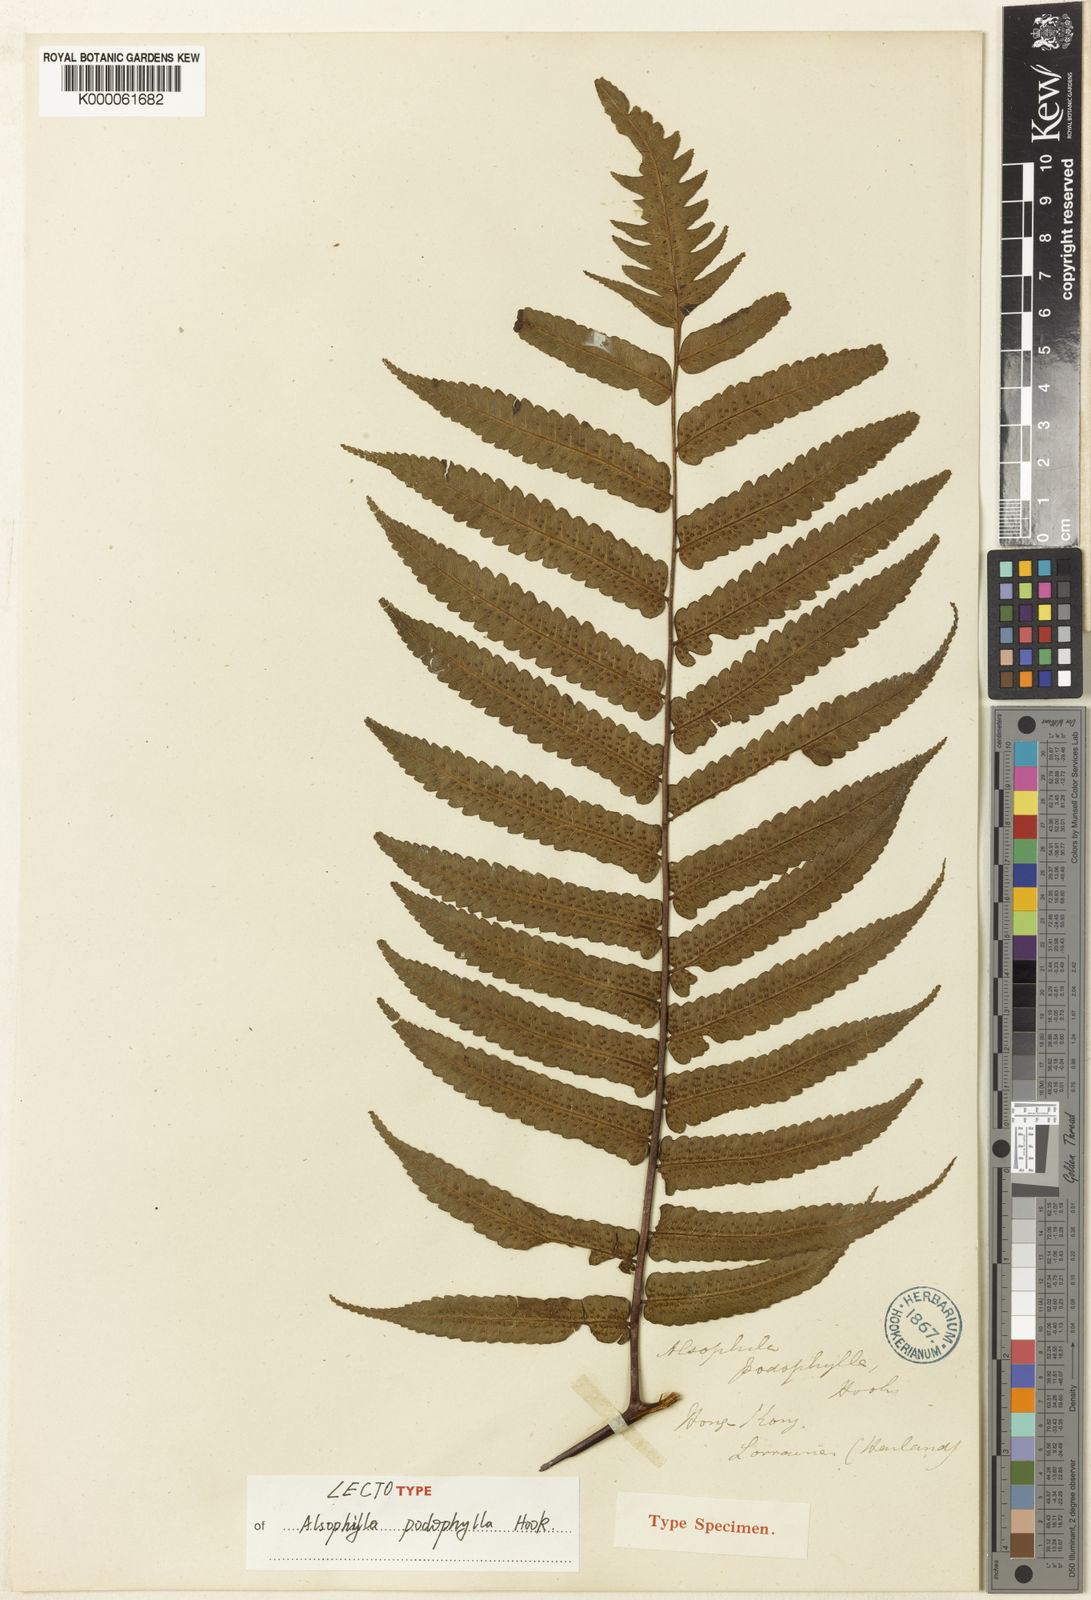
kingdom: Plantae
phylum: Tracheophyta
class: Polypodiopsida
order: Cyatheales
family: Cyatheaceae
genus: Gymnosphaera
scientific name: Gymnosphaera podophylla
